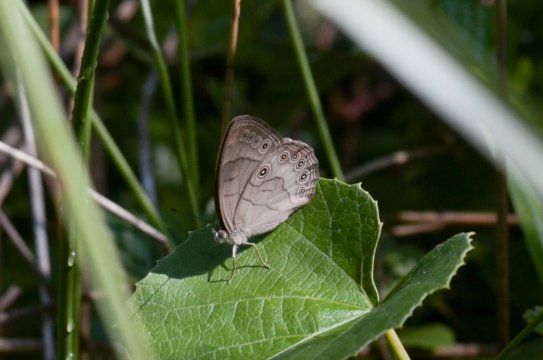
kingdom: Animalia
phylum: Arthropoda
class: Insecta
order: Lepidoptera
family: Nymphalidae
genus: Lethe
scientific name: Lethe eurydice
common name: Appalachian Eyed Brown
